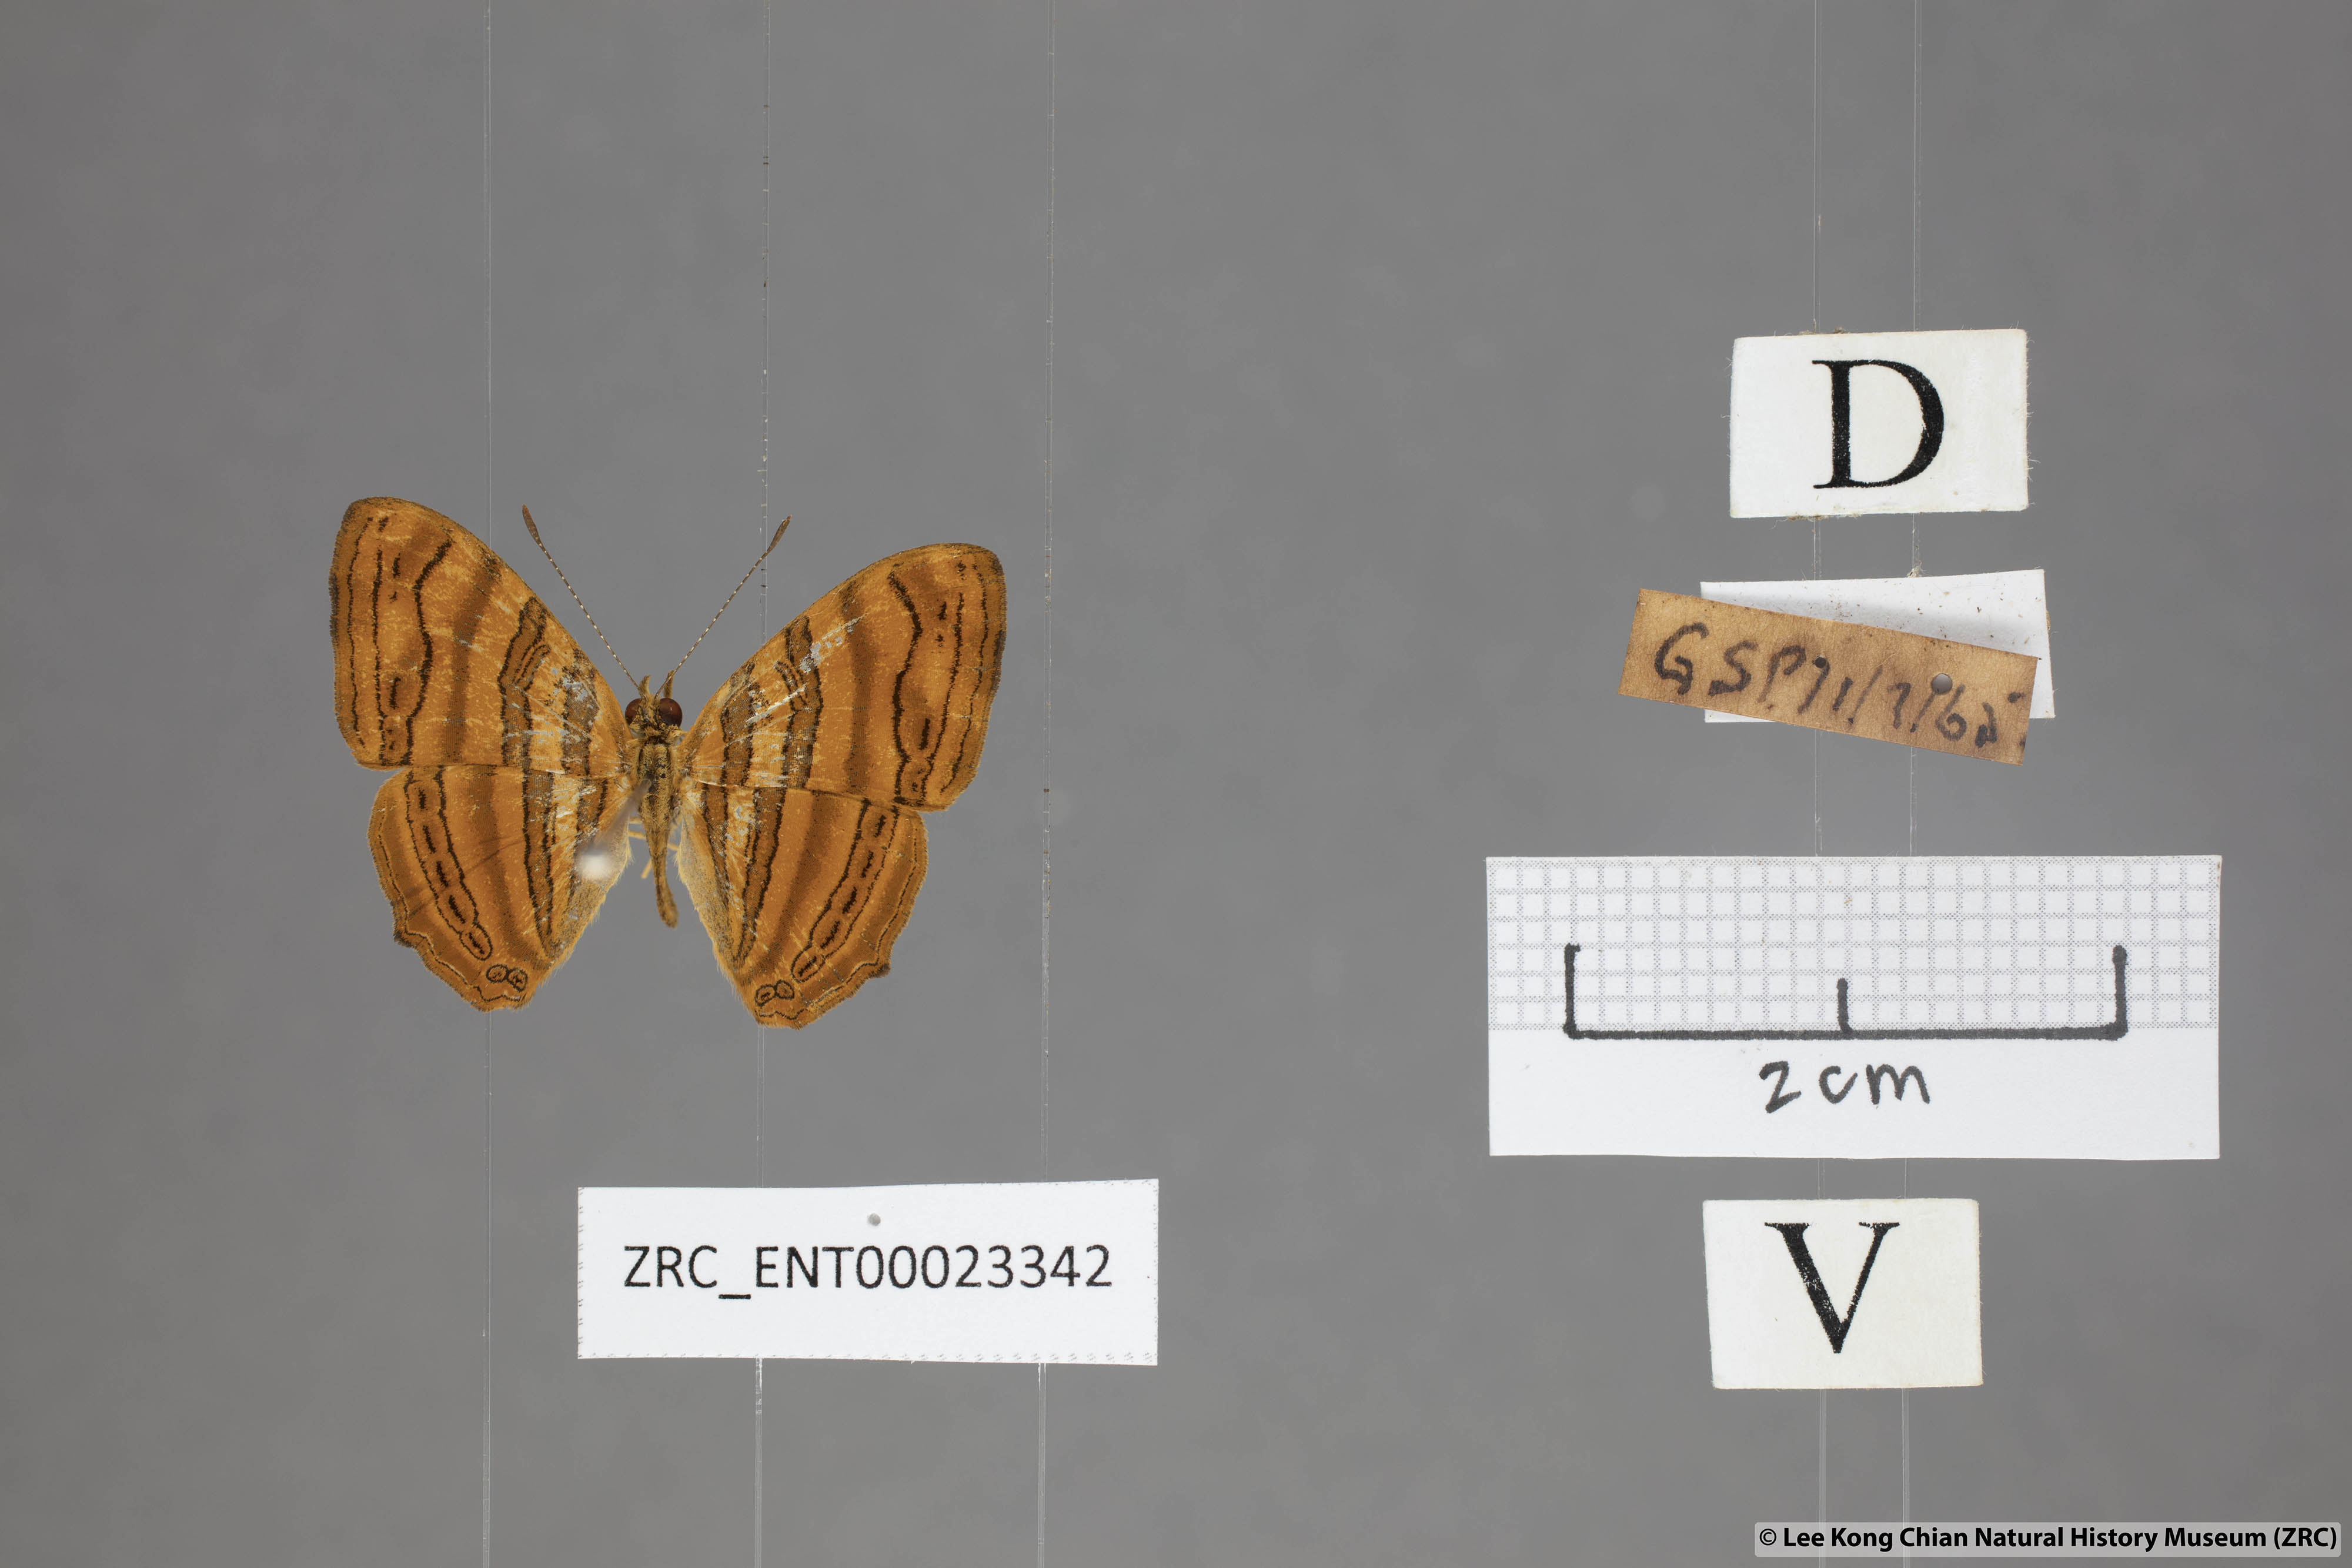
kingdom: Animalia
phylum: Arthropoda
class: Insecta
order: Lepidoptera
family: Nymphalidae
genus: Chersonesia
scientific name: Chersonesia intermedia
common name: Intermediate maplet
